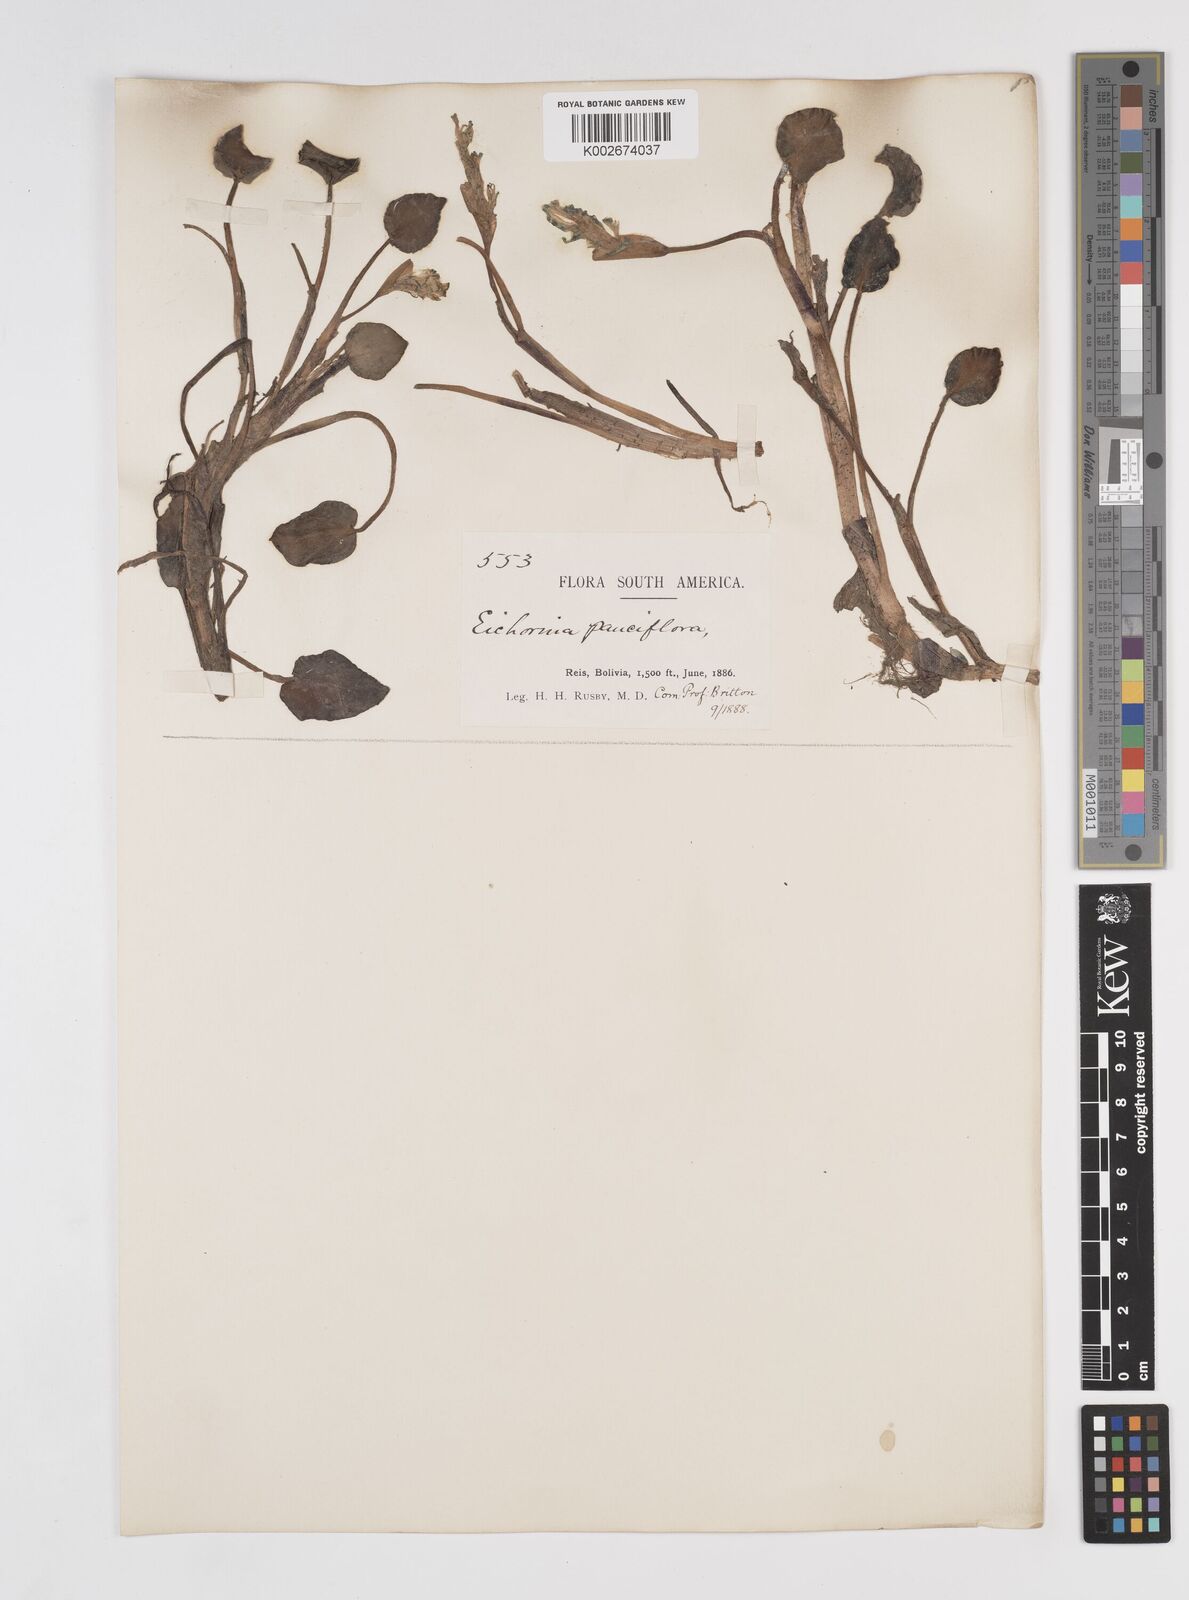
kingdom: Plantae
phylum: Tracheophyta
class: Liliopsida
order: Commelinales
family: Pontederiaceae
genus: Pontederia
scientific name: Pontederia diversifolia
